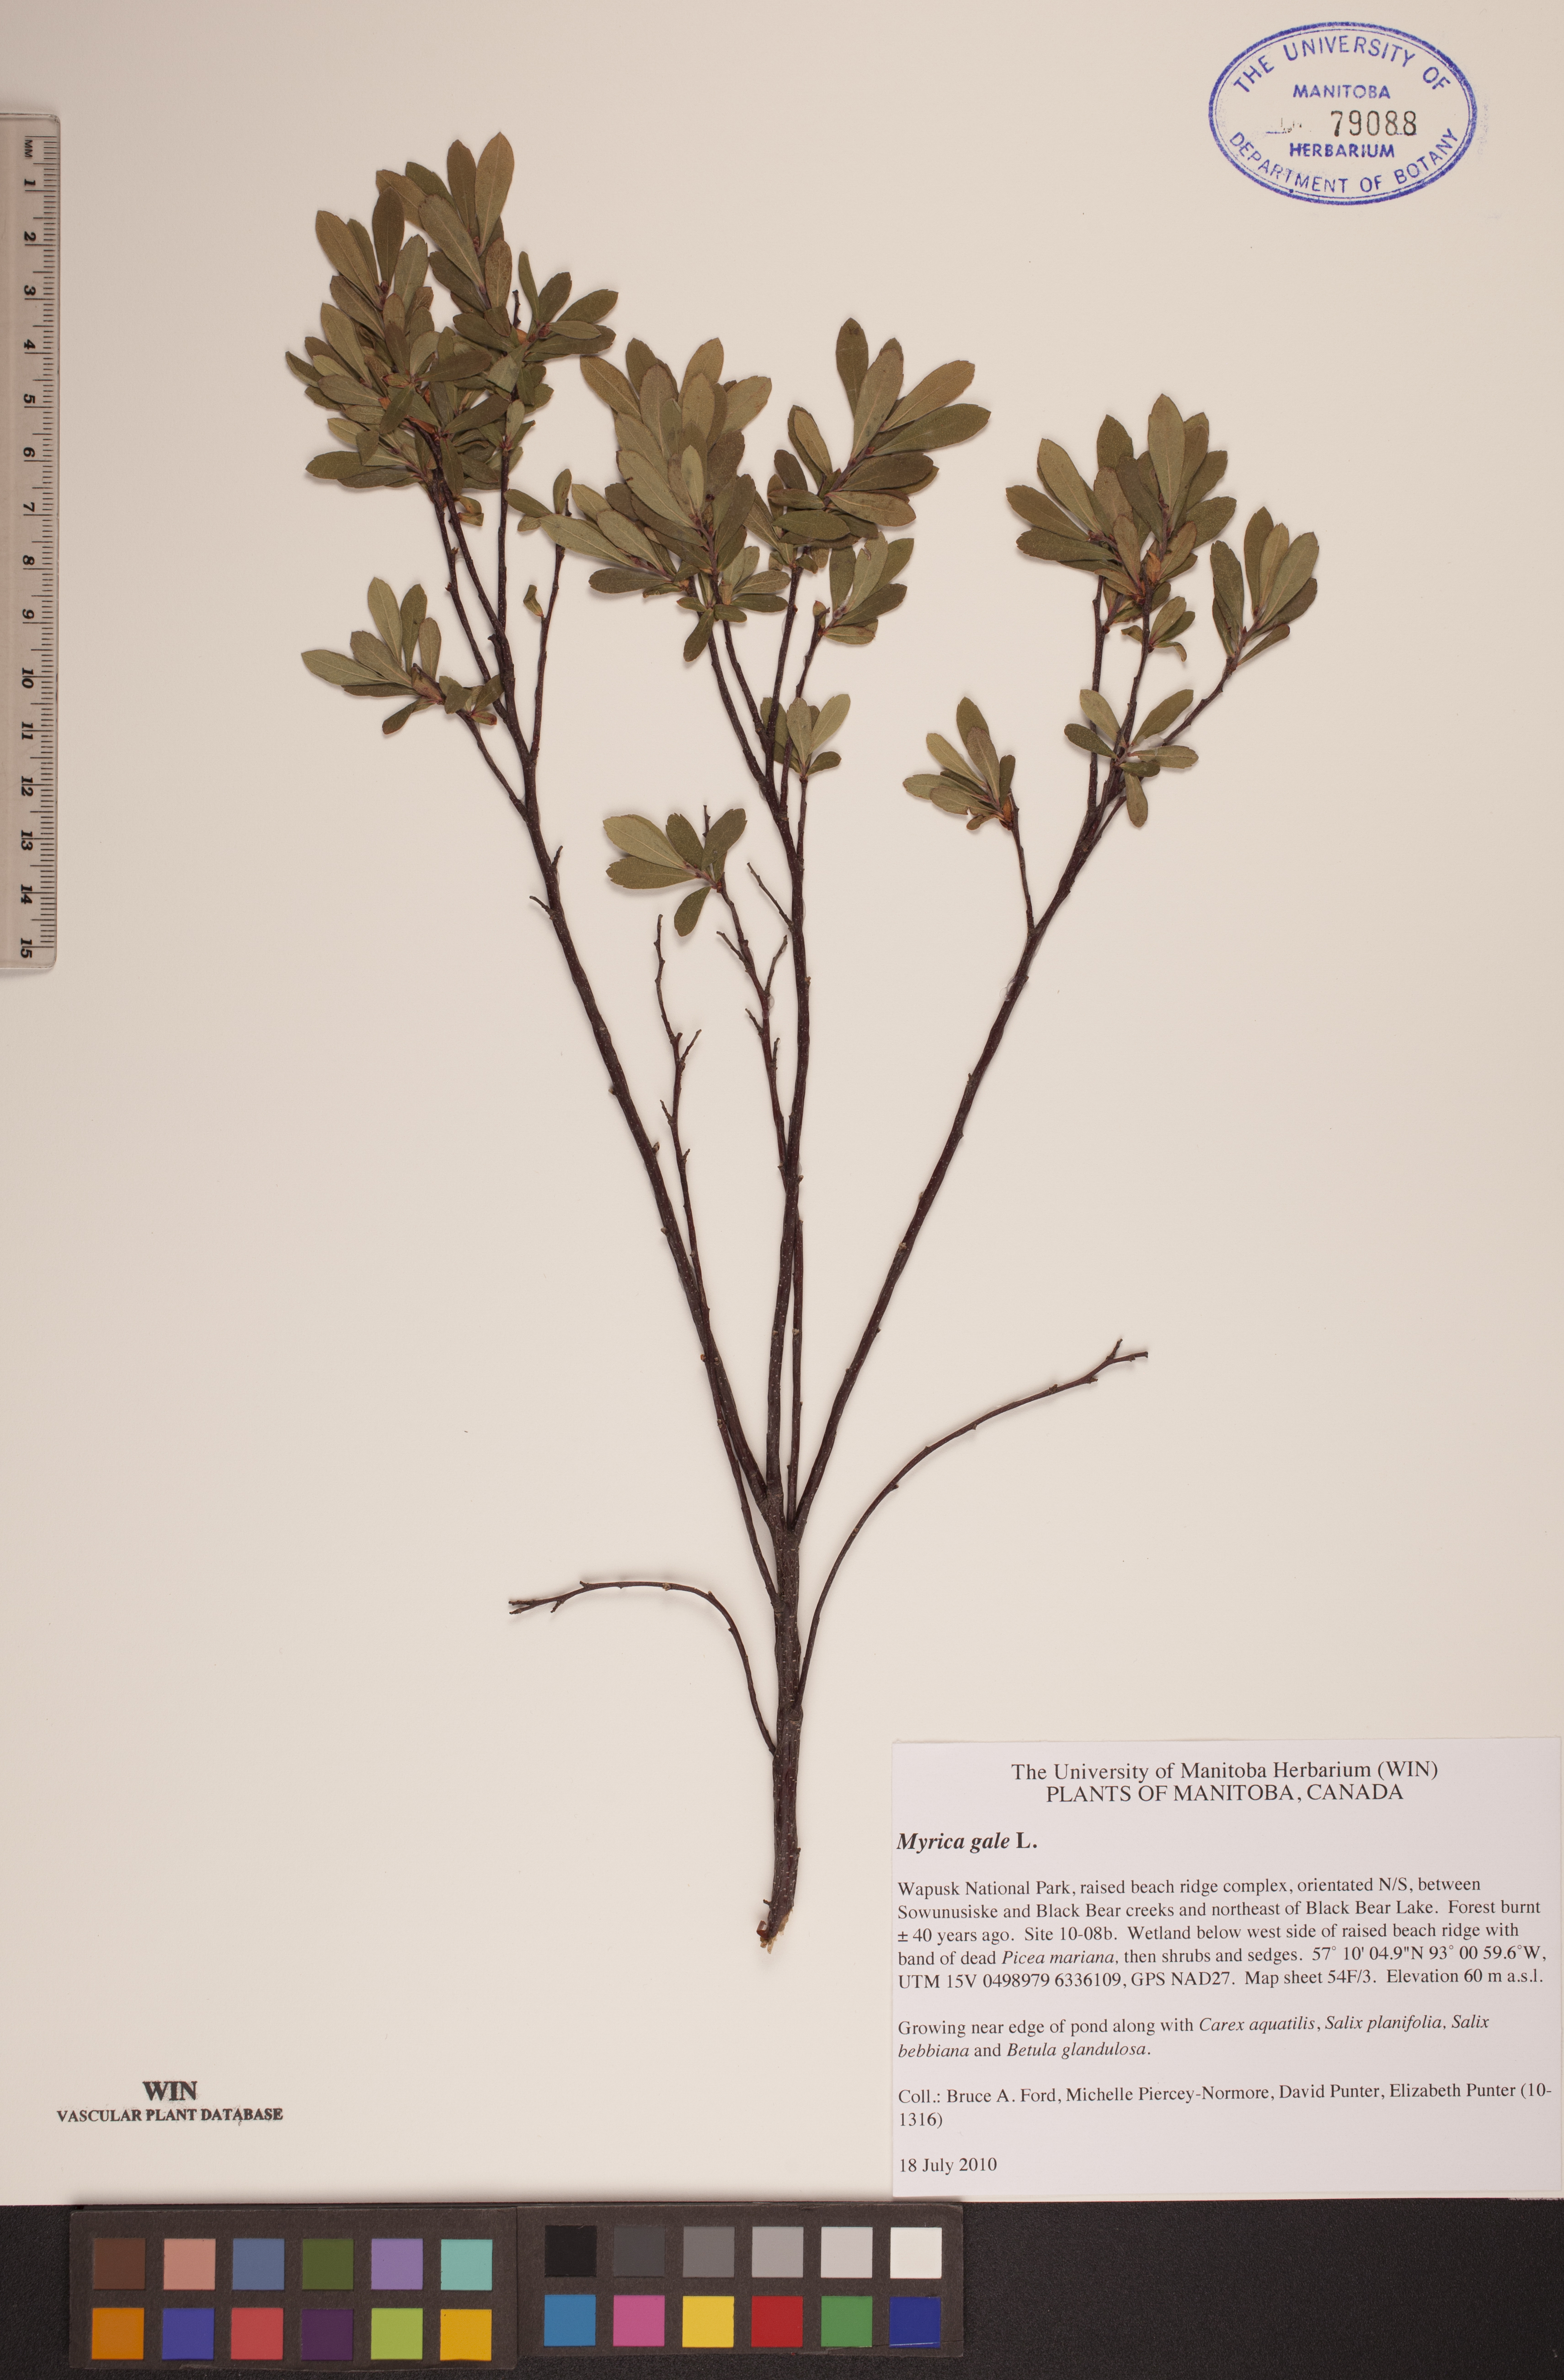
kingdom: Plantae
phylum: Tracheophyta
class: Magnoliopsida
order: Fagales
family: Myricaceae
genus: Myrica
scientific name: Myrica gale
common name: Sweet gale
